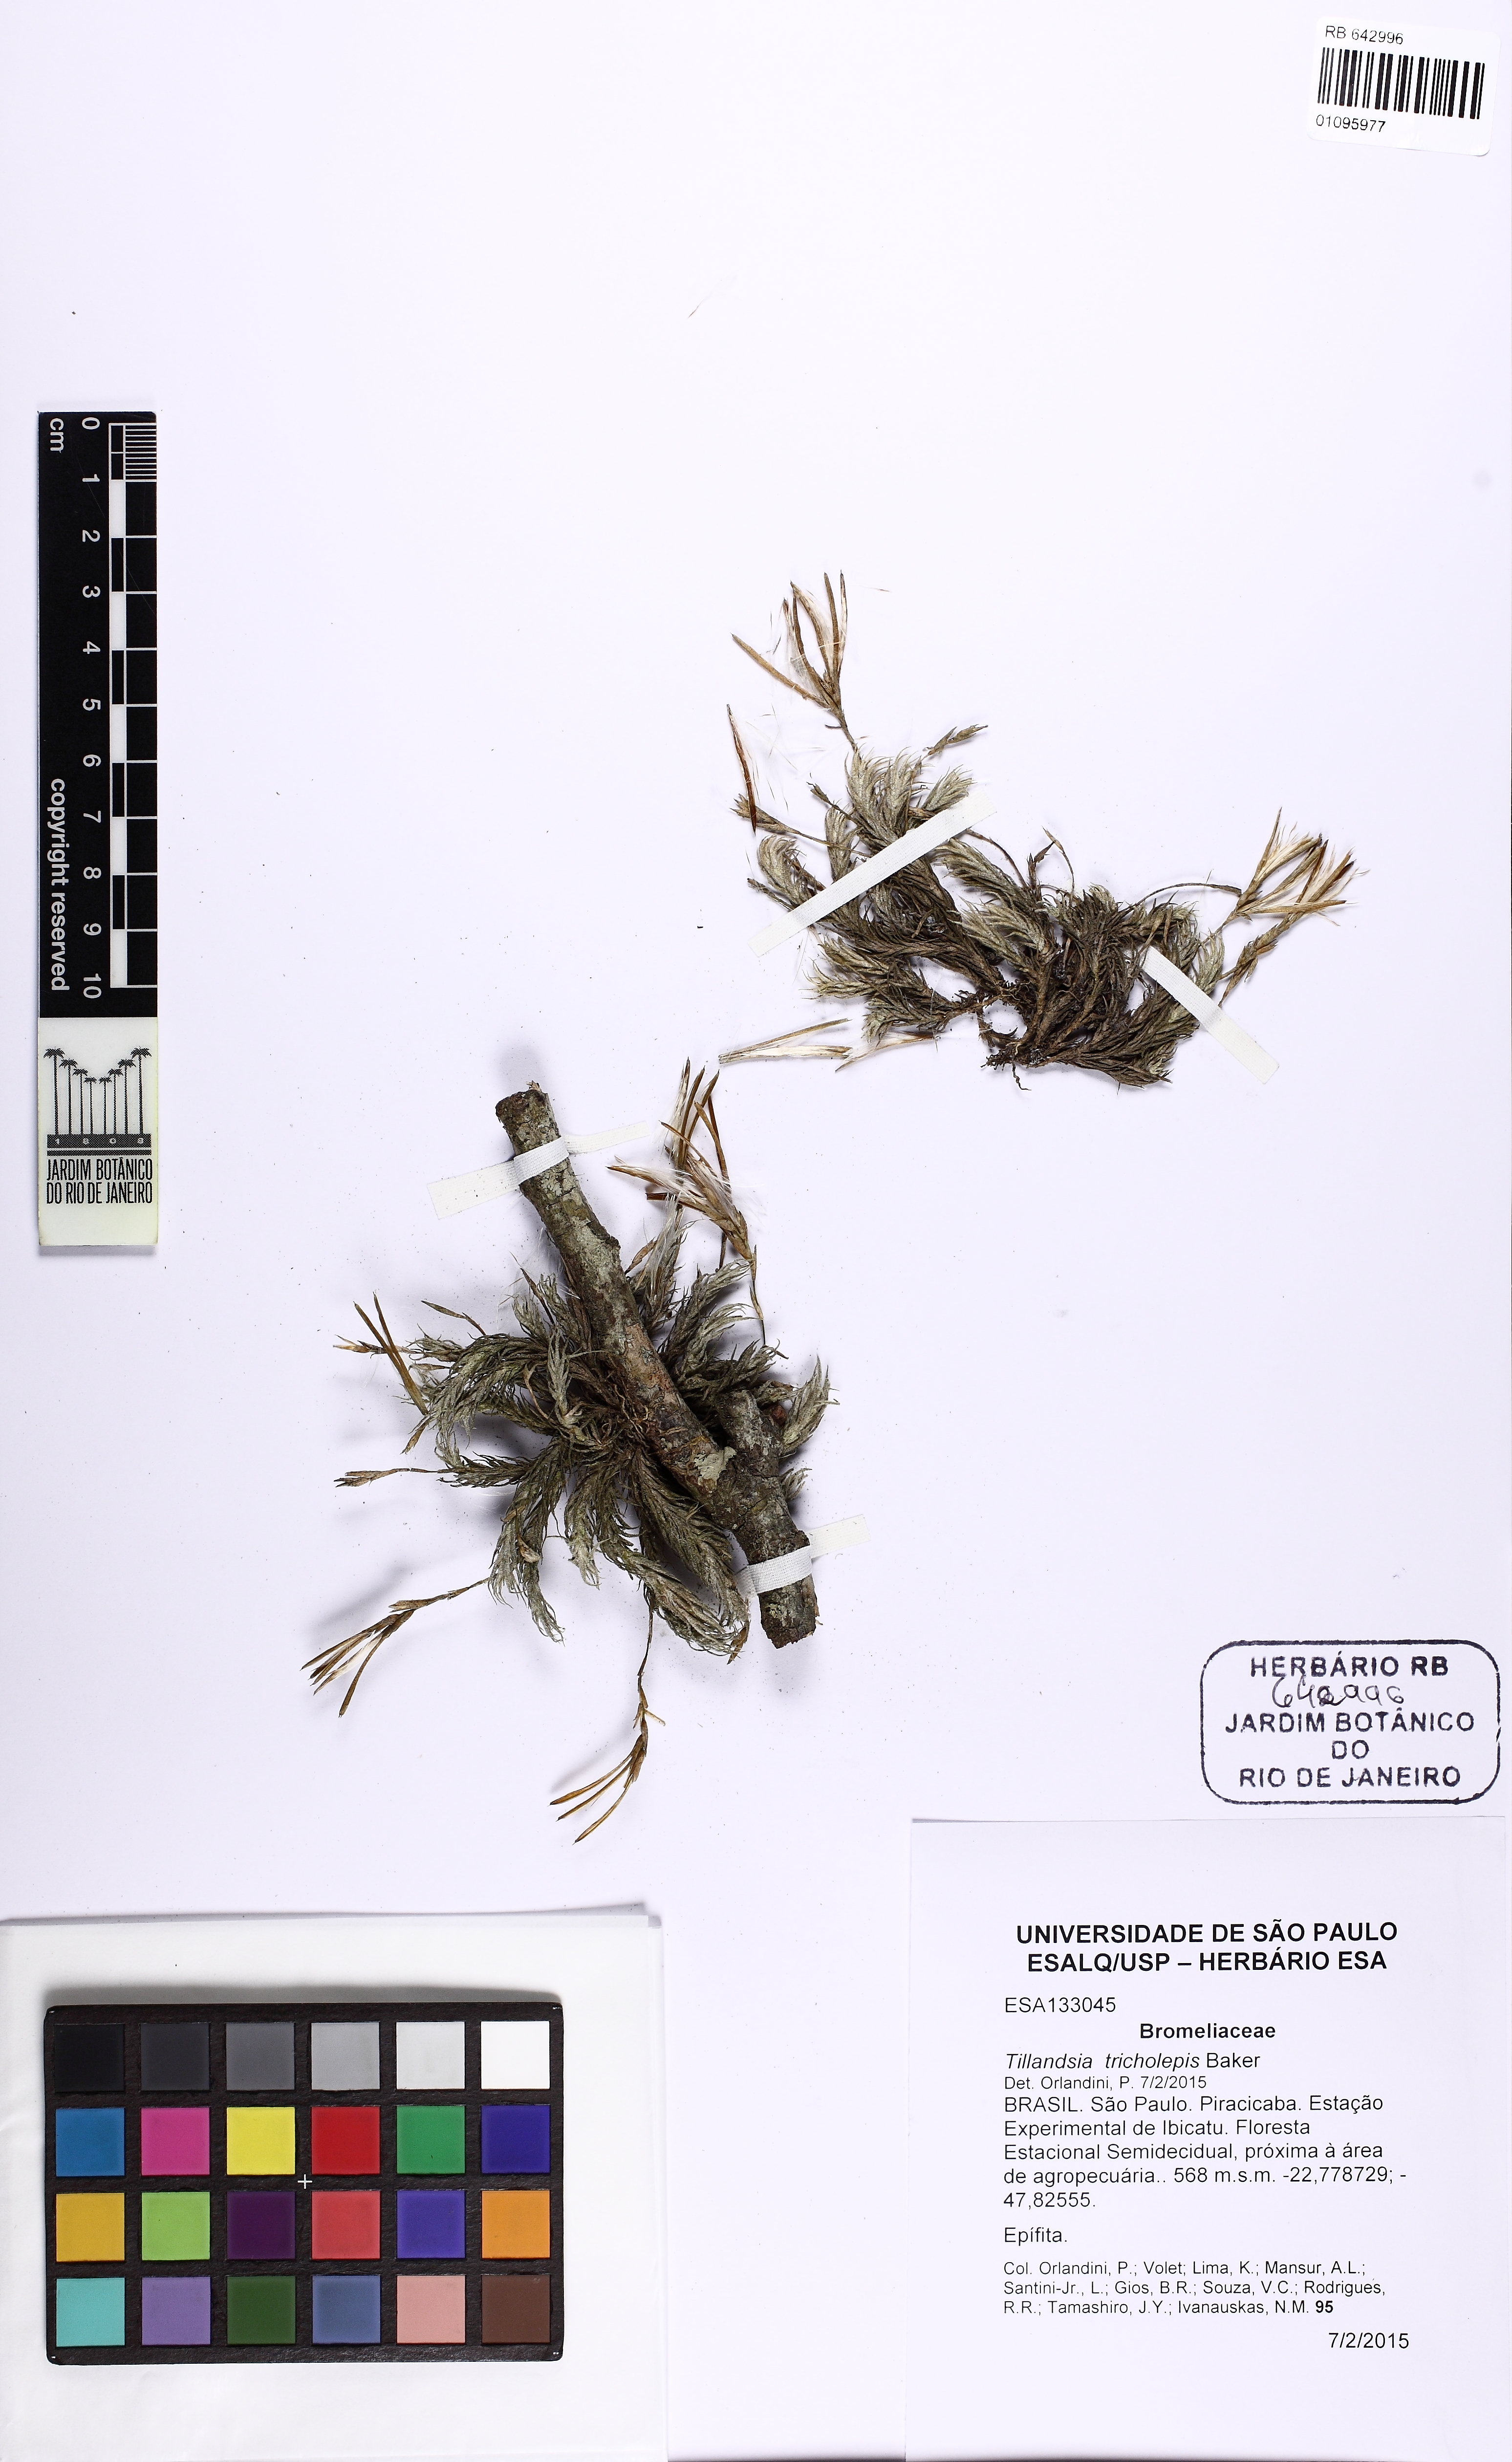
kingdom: Plantae
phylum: Tracheophyta
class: Liliopsida
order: Poales
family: Bromeliaceae
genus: Tillandsia
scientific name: Tillandsia tricholepis
